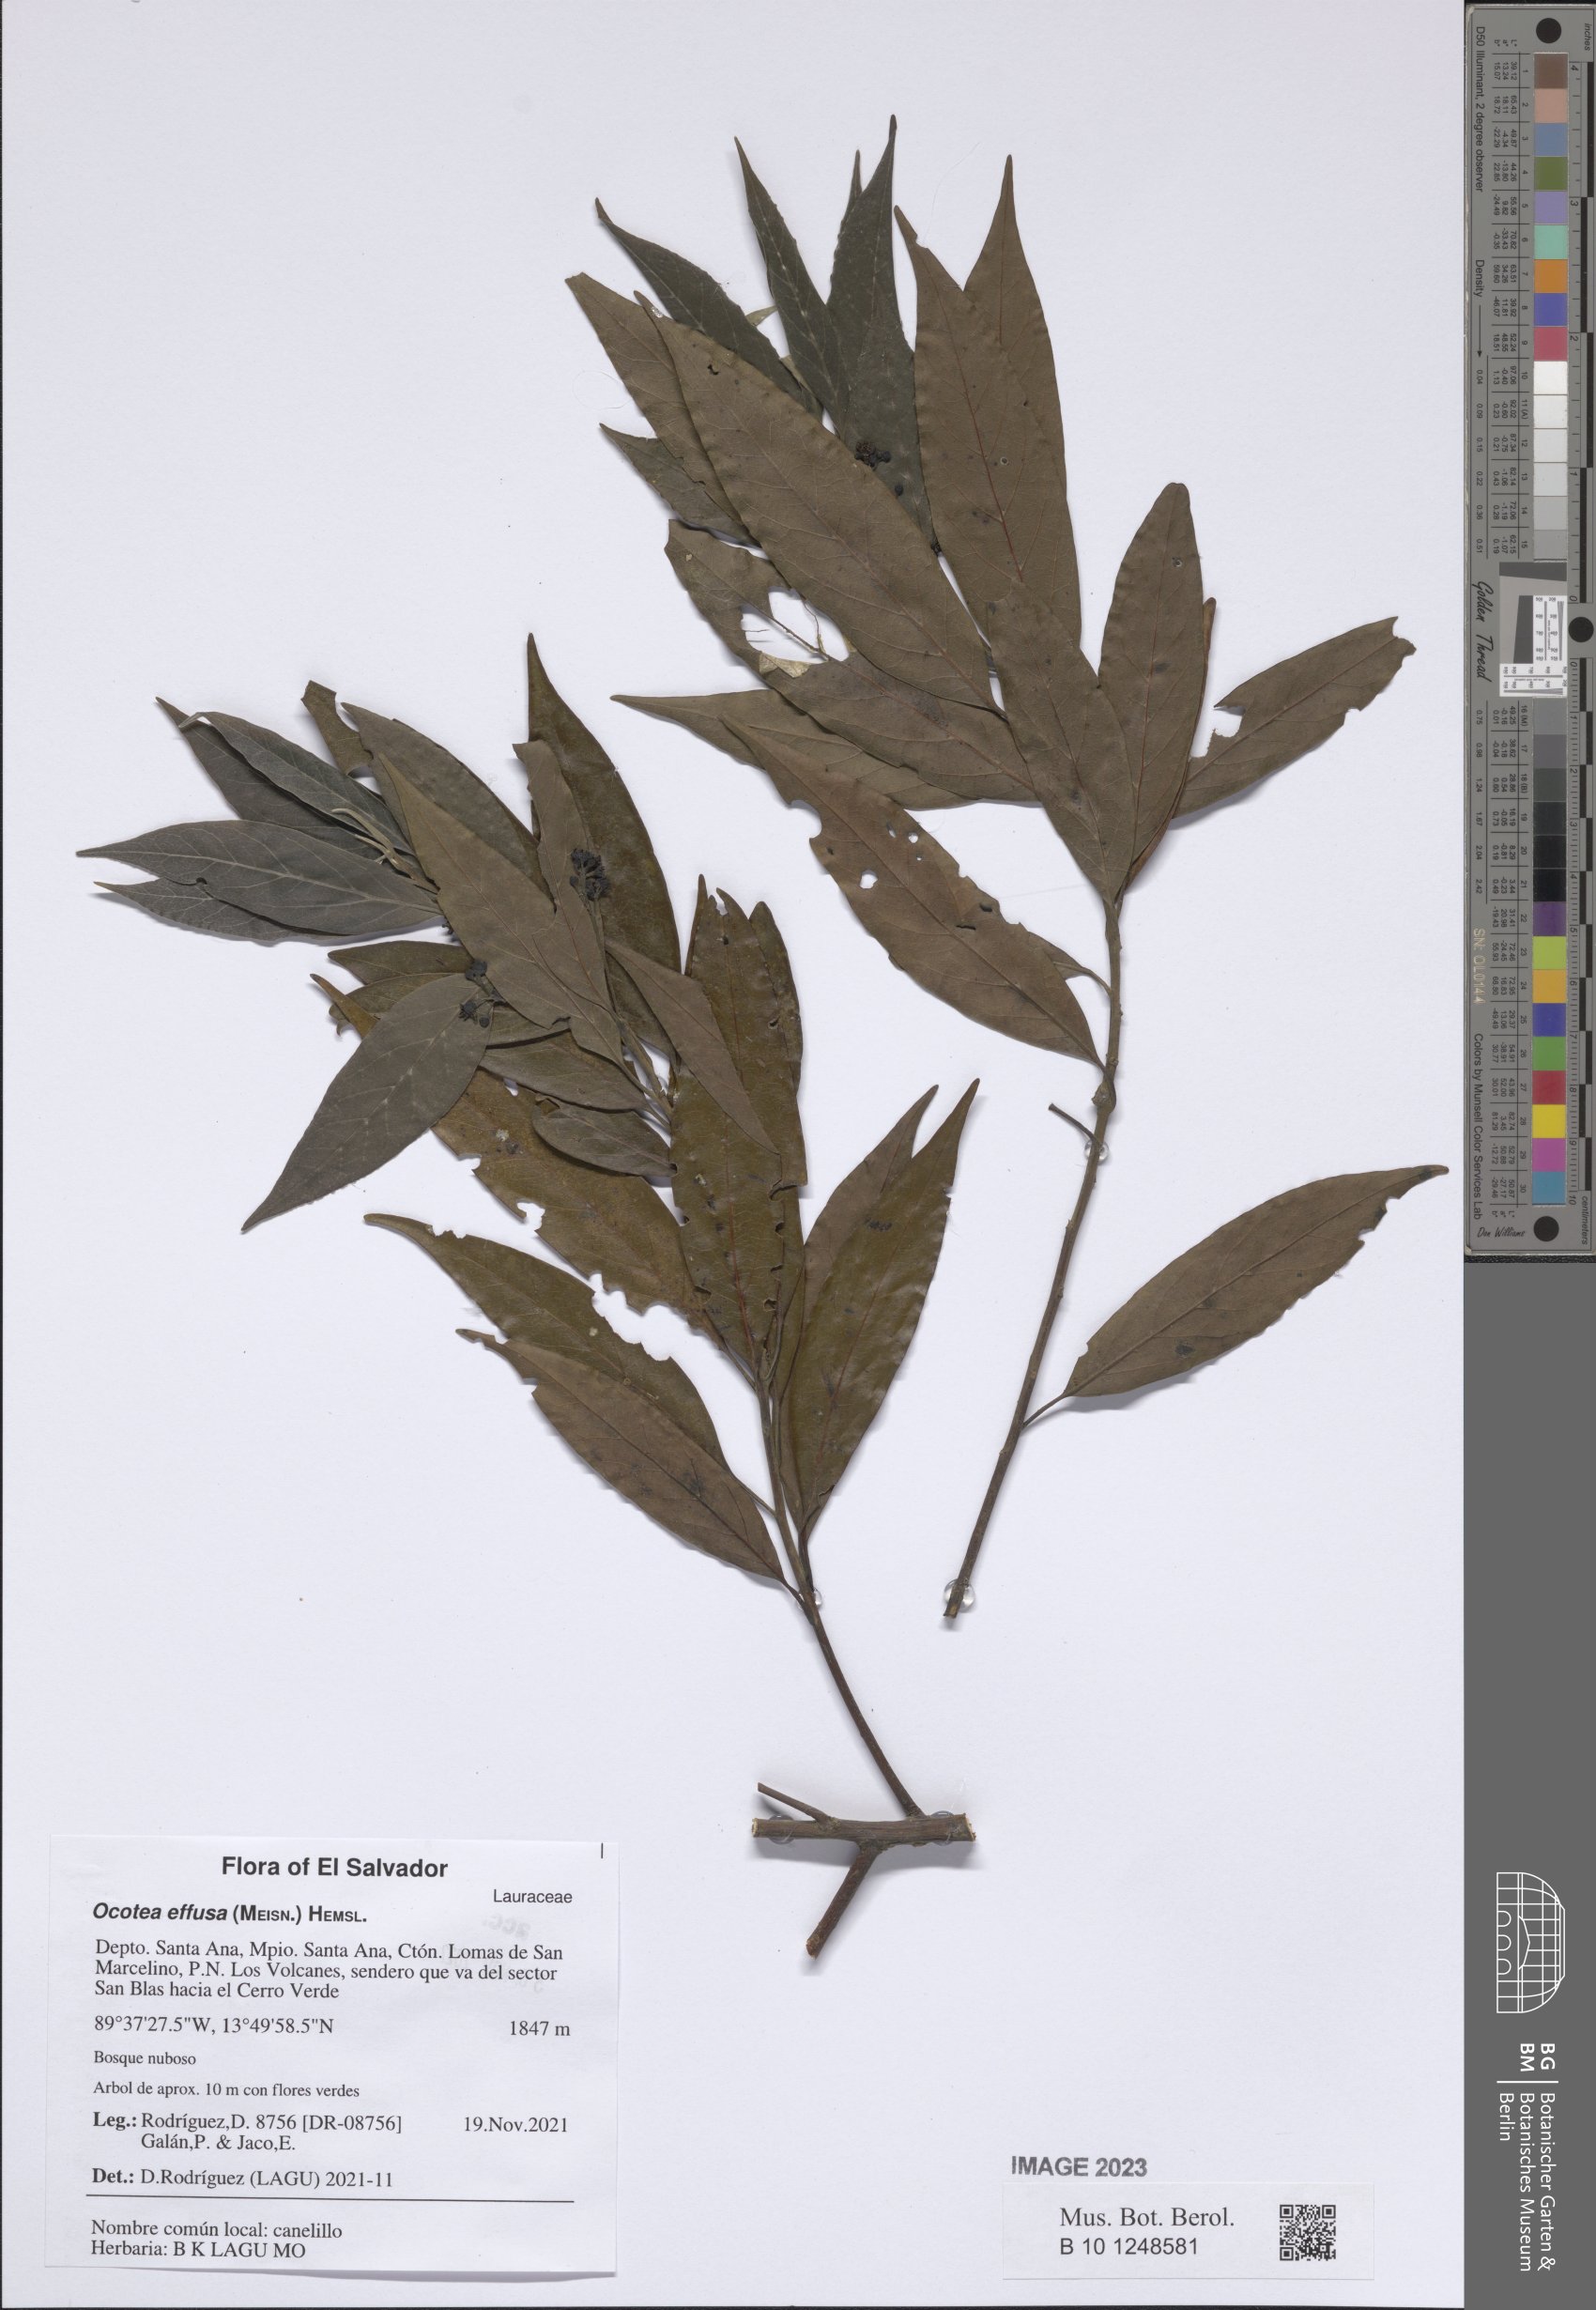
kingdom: Plantae
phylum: Tracheophyta
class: Magnoliopsida
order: Laurales
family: Lauraceae
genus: Ocotea
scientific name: Ocotea effusa
